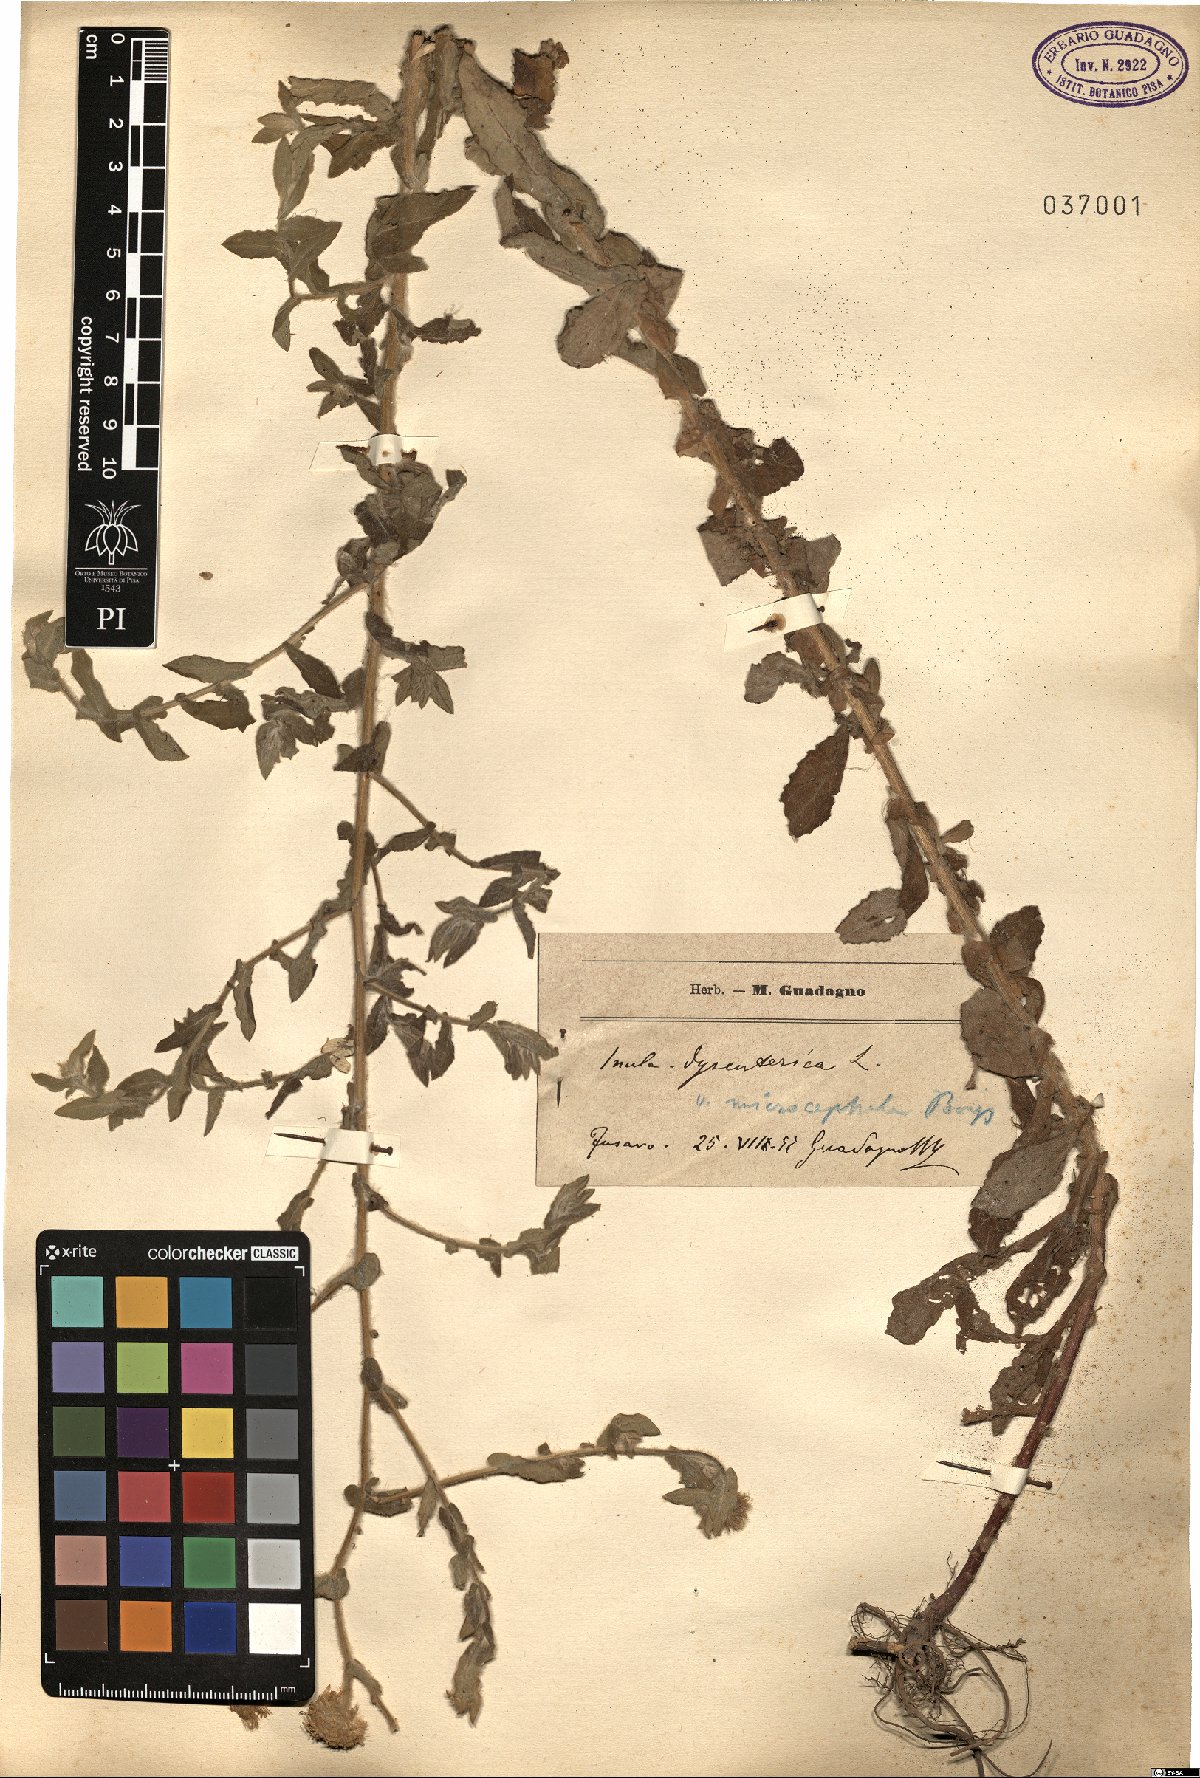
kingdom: Plantae
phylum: Tracheophyta
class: Magnoliopsida
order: Asterales
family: Asteraceae
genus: Pulicaria
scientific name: Pulicaria dysenterica
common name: Common fleabane
